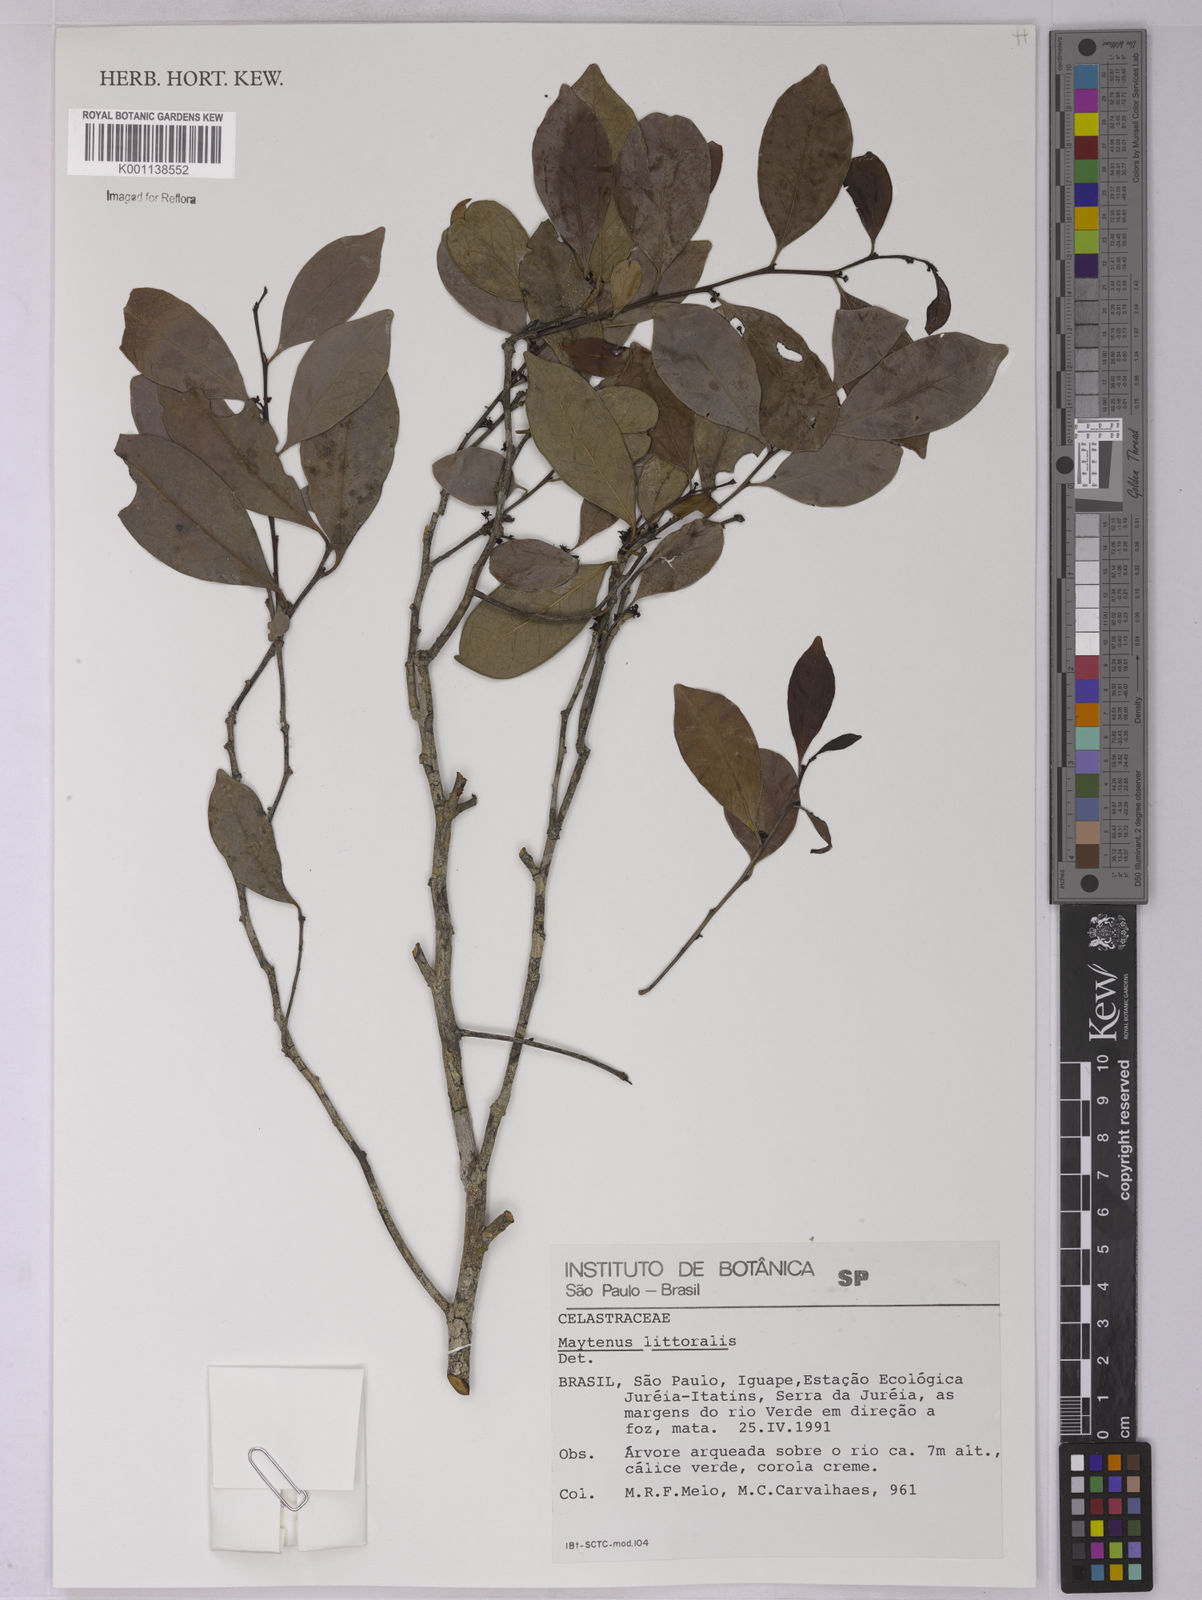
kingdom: Plantae
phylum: Tracheophyta
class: Magnoliopsida
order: Celastrales
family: Celastraceae
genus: Monteverdia
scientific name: Monteverdia littoralis
